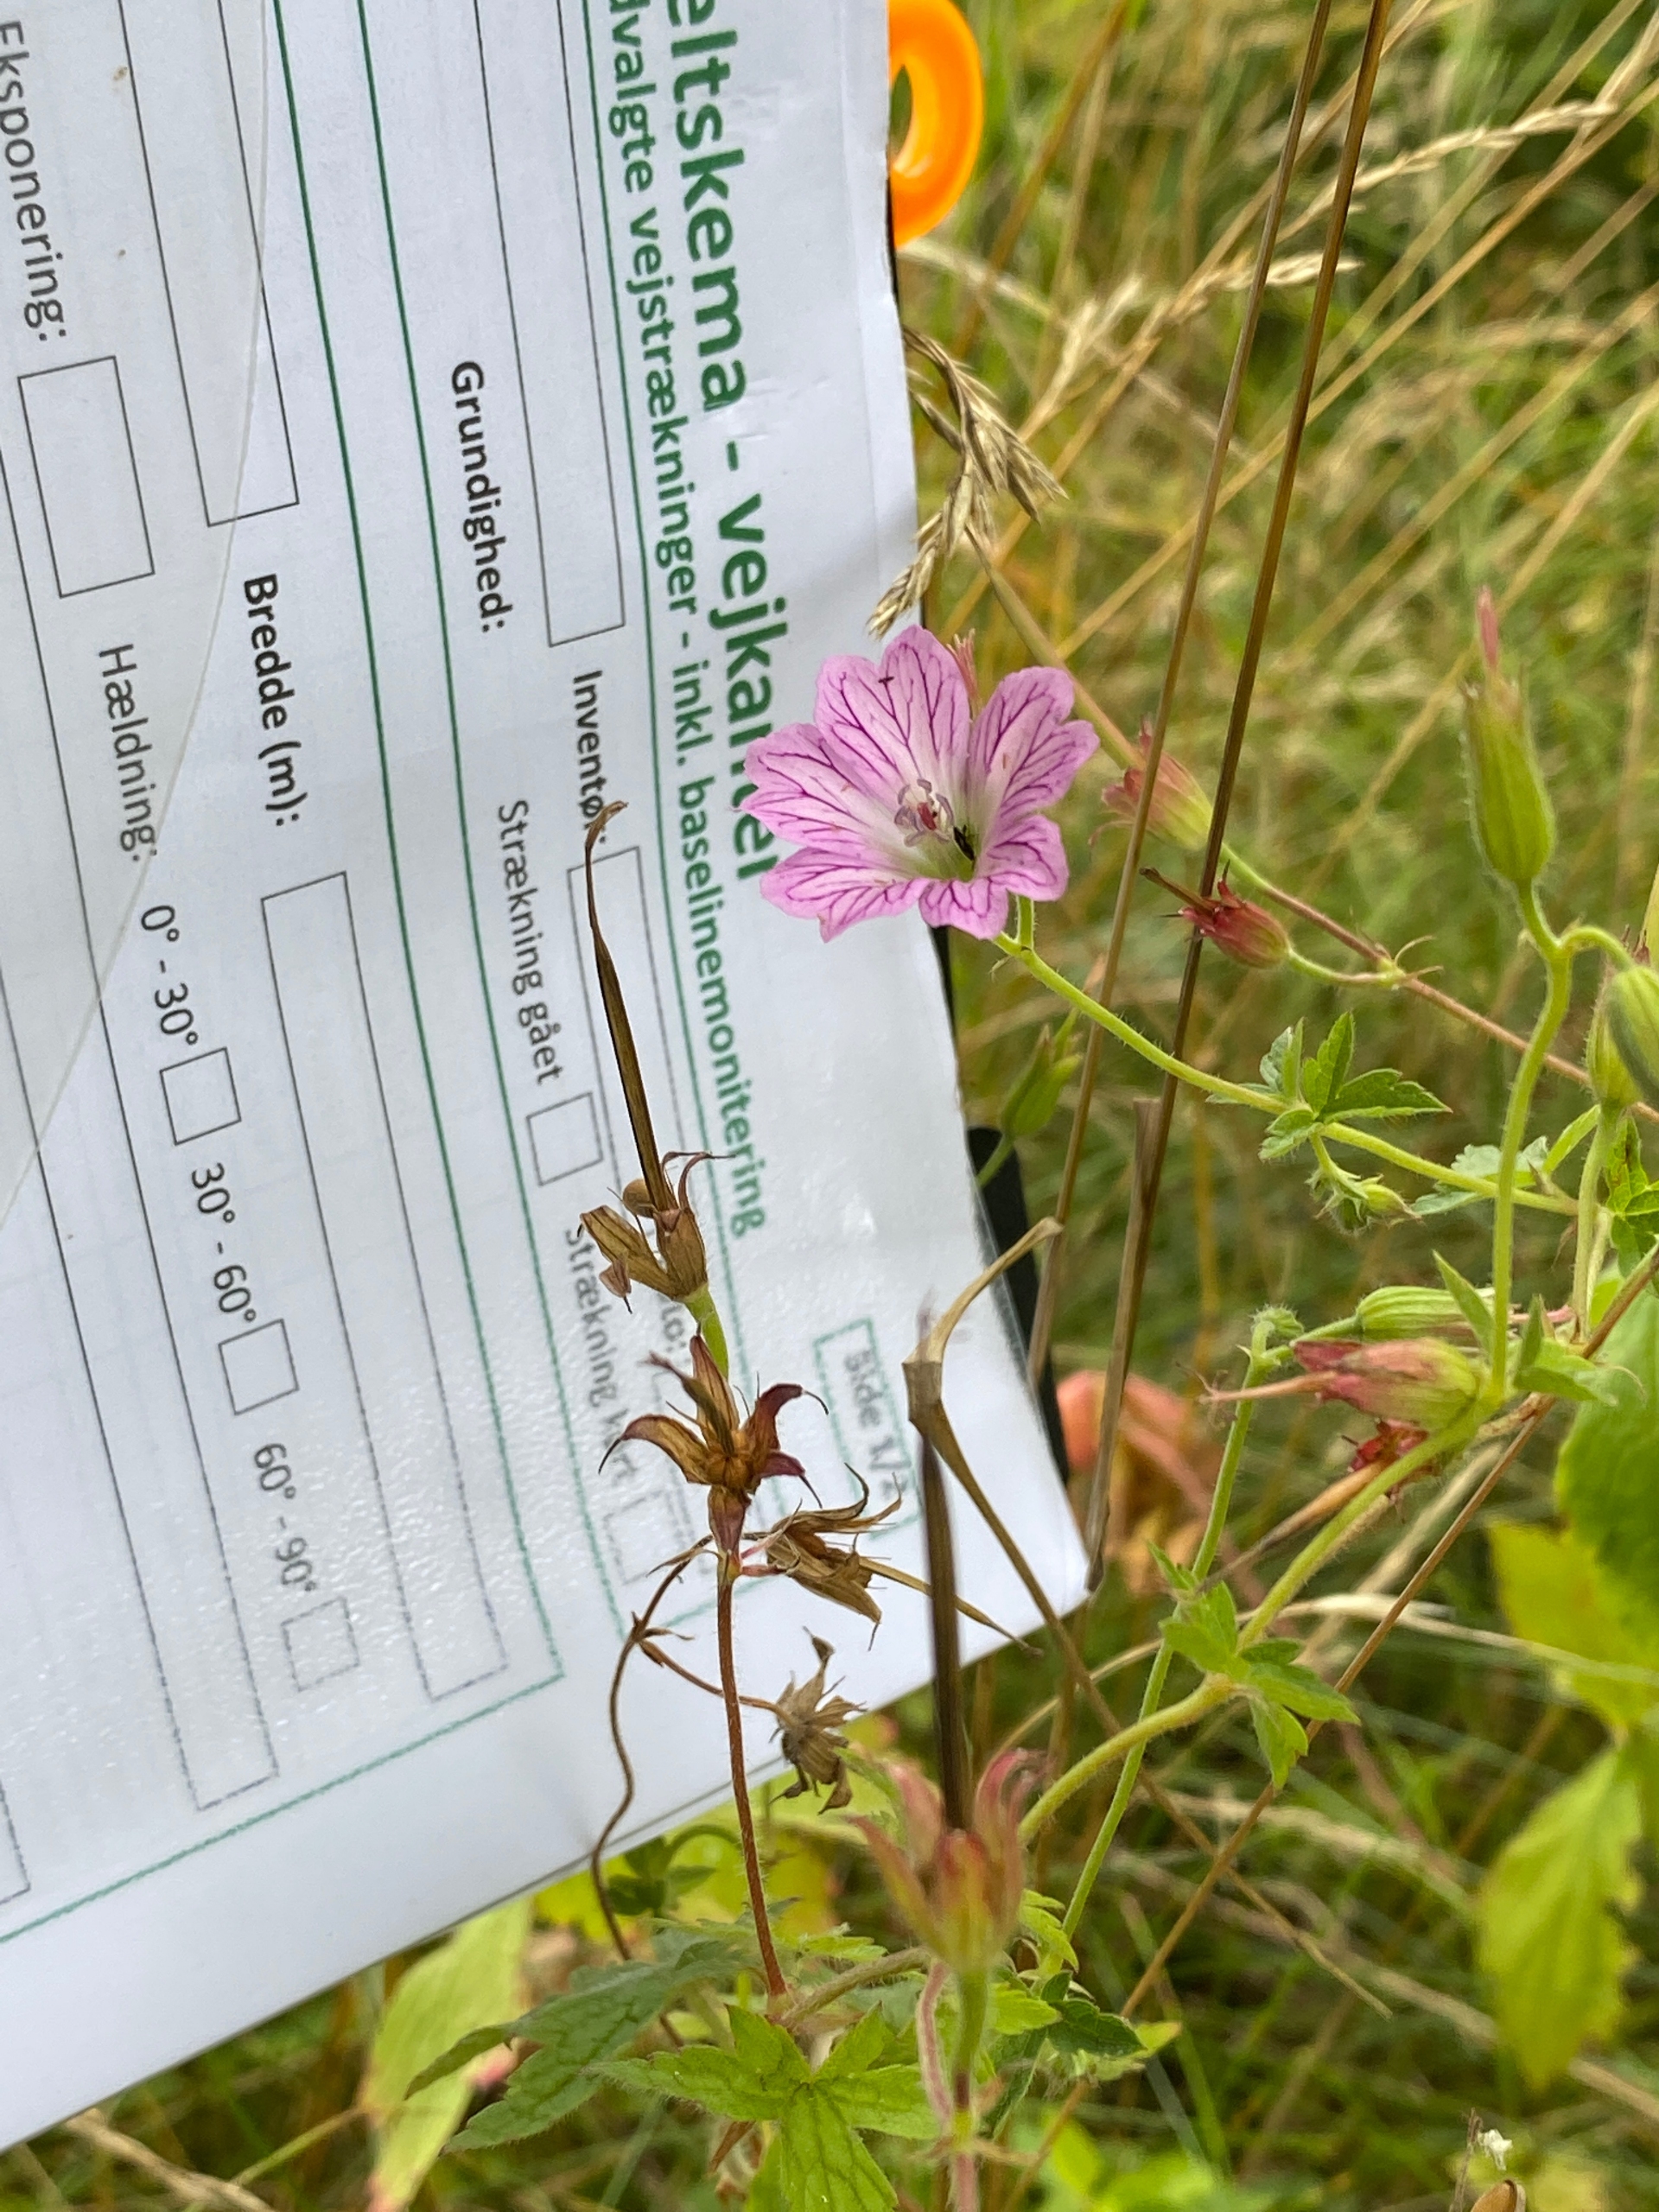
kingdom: Plantae
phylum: Tracheophyta
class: Magnoliopsida
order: Geraniales
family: Geraniaceae
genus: Geranium
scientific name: Geranium oxonianum
